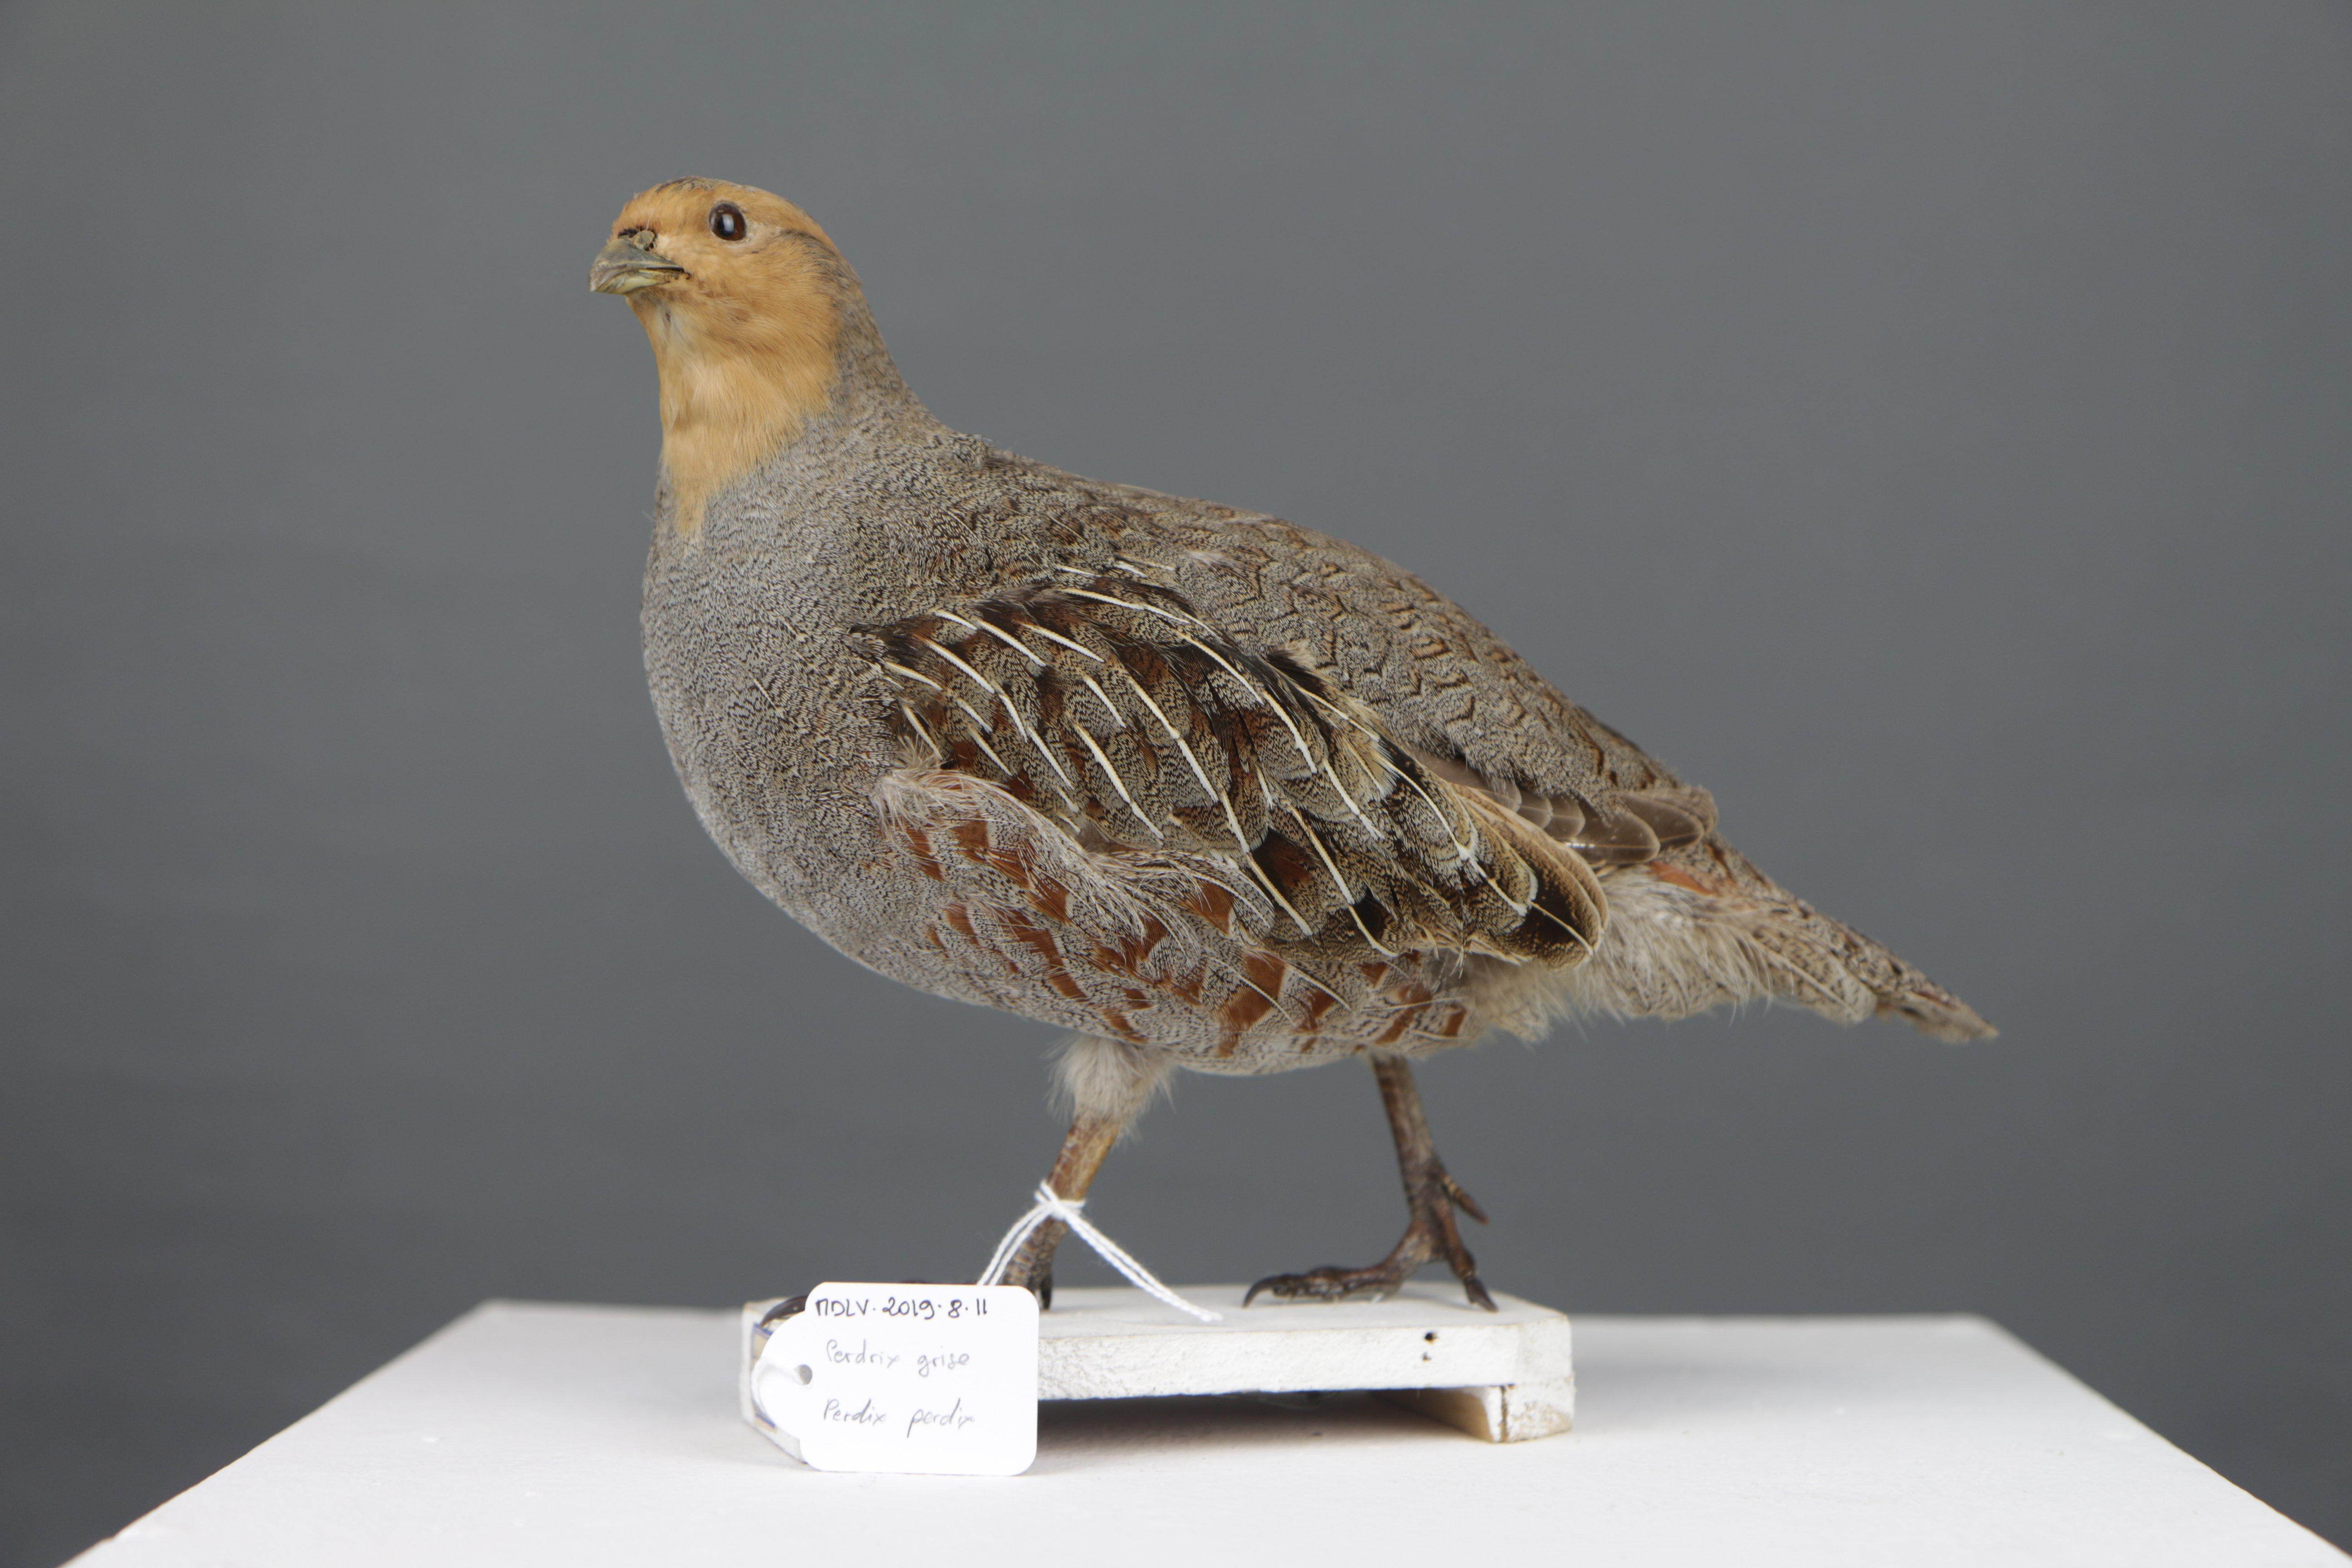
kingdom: Animalia
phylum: Chordata
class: Aves
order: Galliformes
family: Phasianidae
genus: Perdix
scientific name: Perdix perdix
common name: Grey partridge
